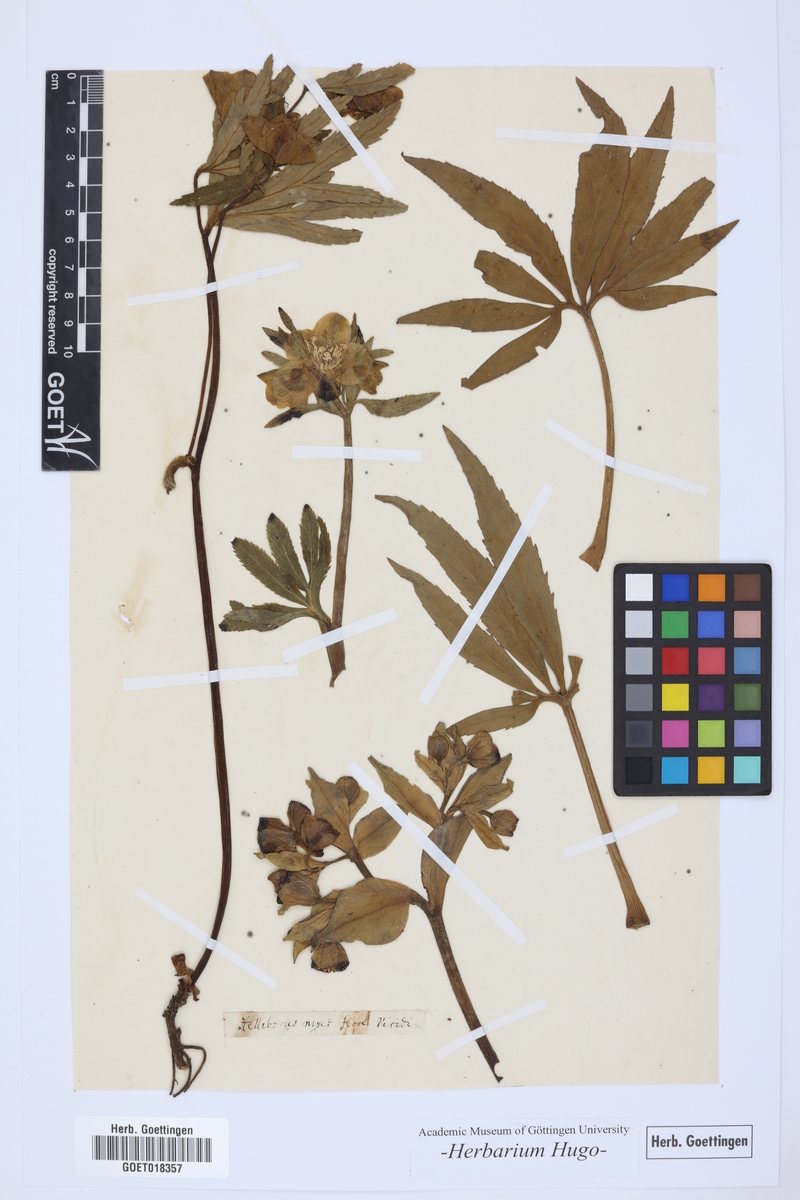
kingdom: Plantae
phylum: Tracheophyta
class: Magnoliopsida
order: Ranunculales
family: Ranunculaceae
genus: Helleborus
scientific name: Helleborus viridis
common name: Green hellebore
